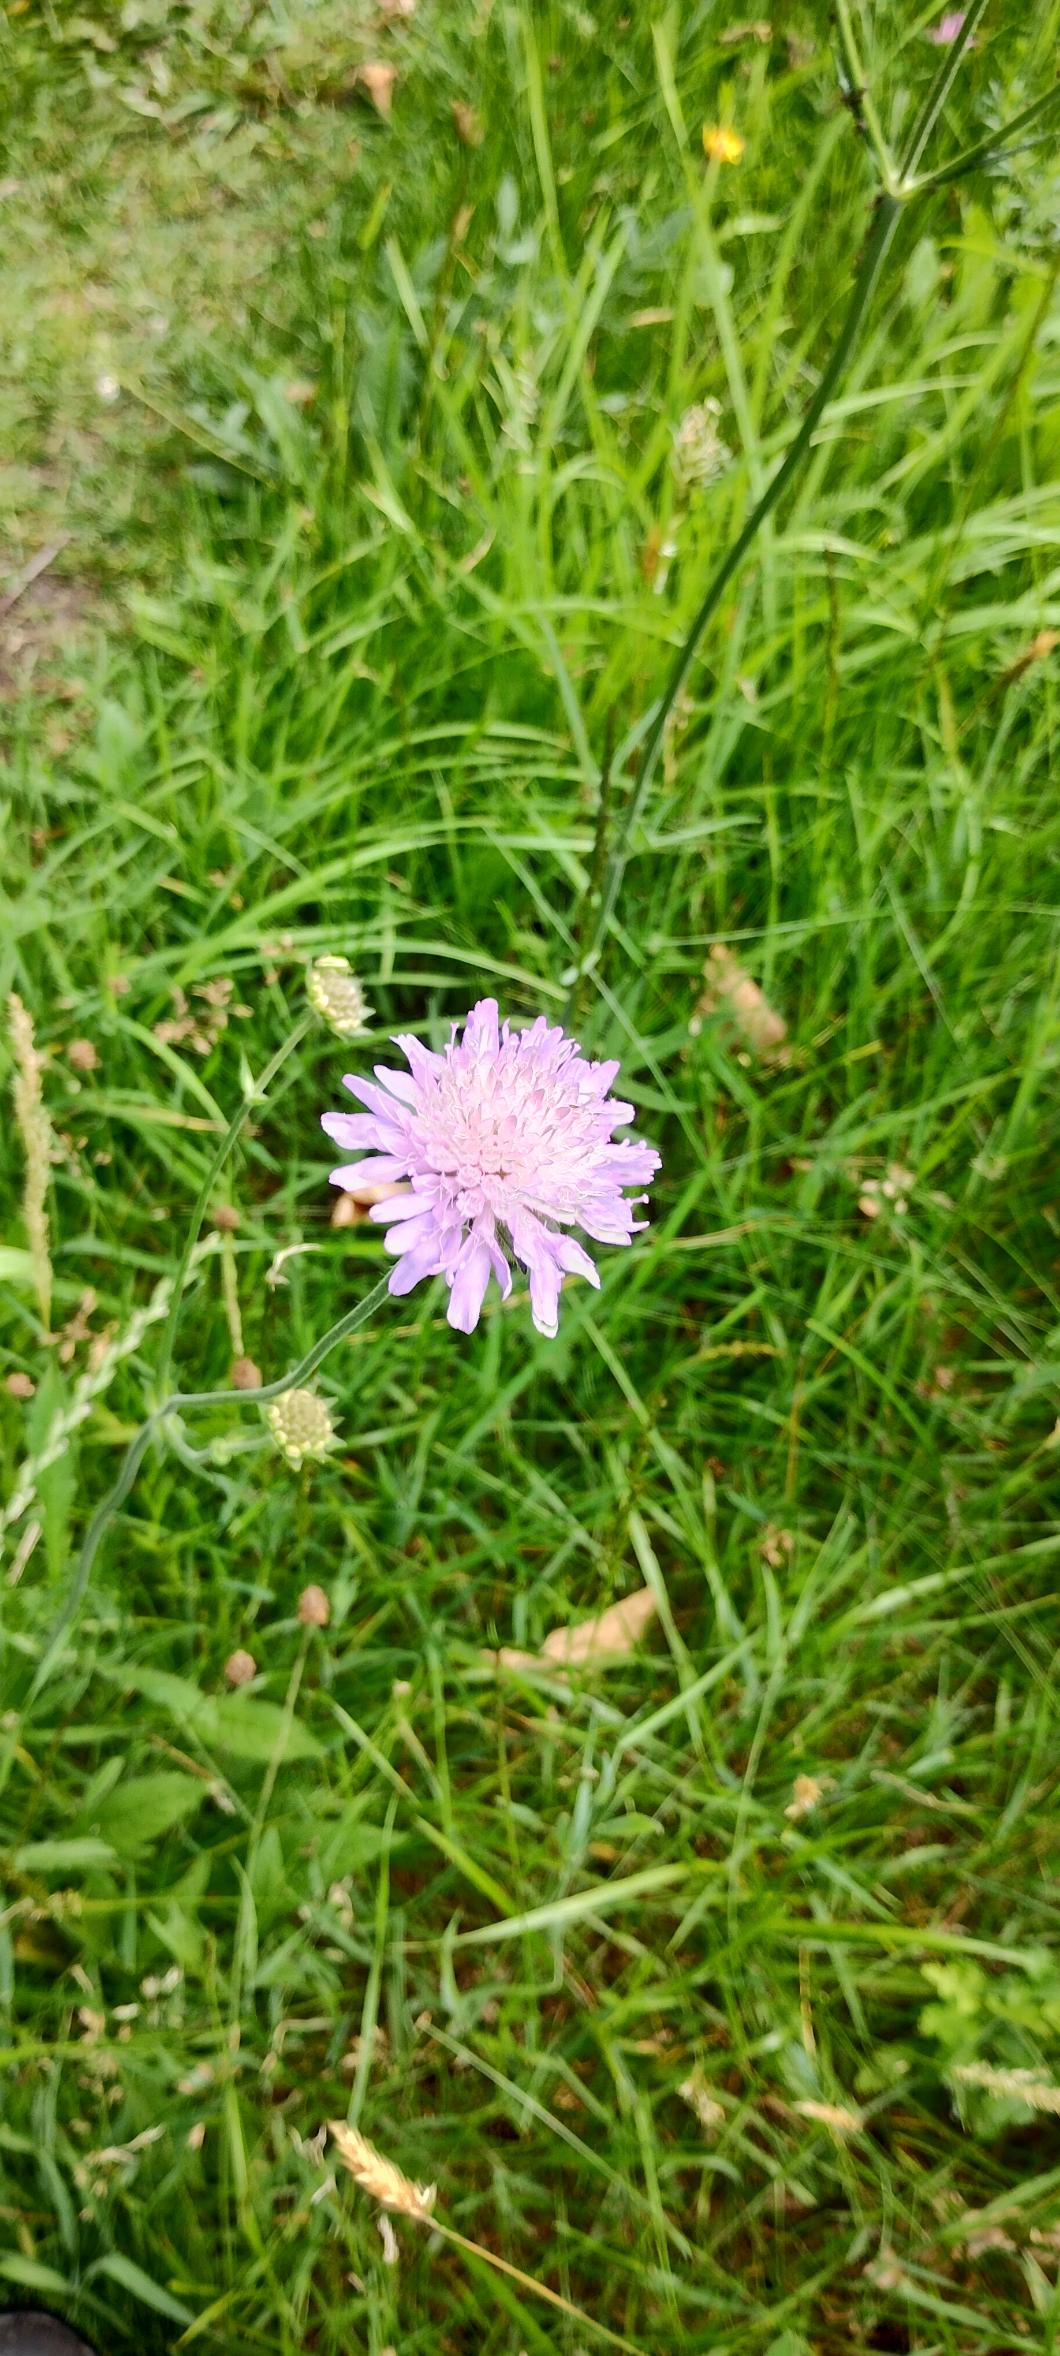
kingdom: Plantae
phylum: Tracheophyta
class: Magnoliopsida
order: Dipsacales
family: Caprifoliaceae
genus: Knautia
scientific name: Knautia arvensis
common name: Blåhat
